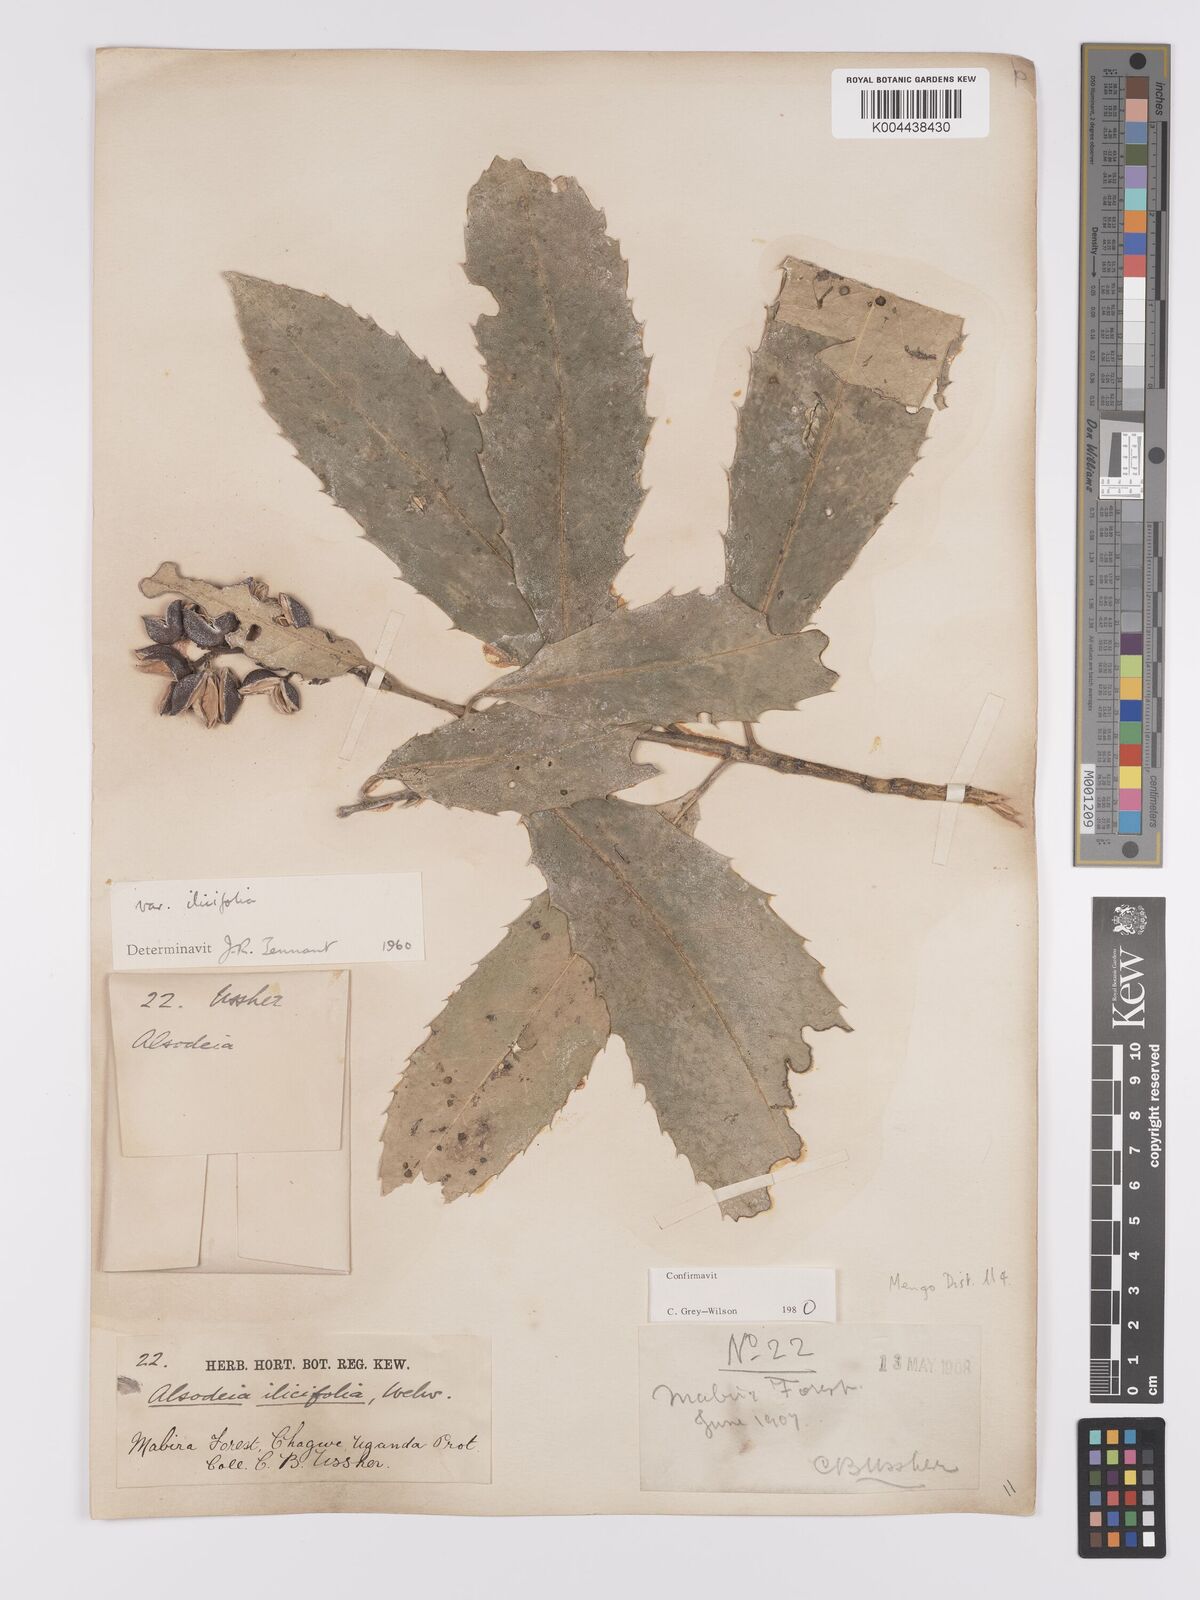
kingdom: Plantae
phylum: Tracheophyta
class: Magnoliopsida
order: Malpighiales
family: Violaceae
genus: Rinorea
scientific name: Rinorea ilicifolia
